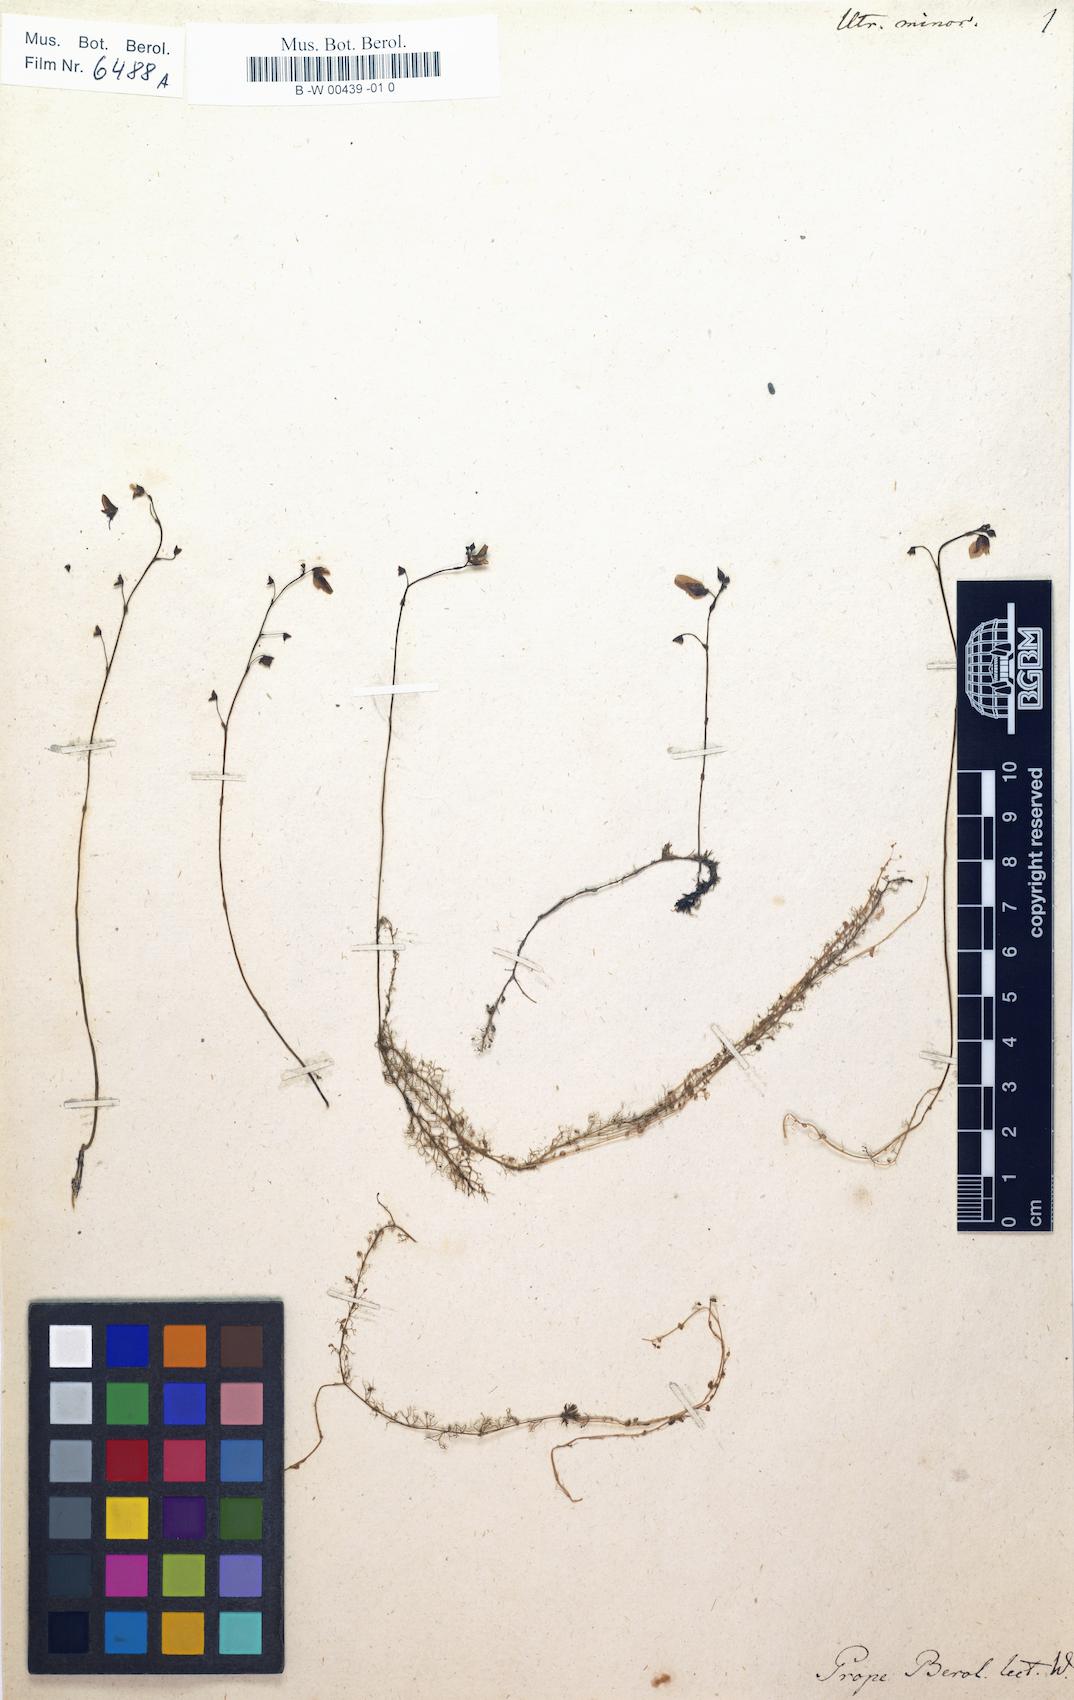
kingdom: Plantae
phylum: Tracheophyta
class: Magnoliopsida
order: Lamiales
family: Lentibulariaceae
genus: Utricularia
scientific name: Utricularia minor
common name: Lesser bladderwort
